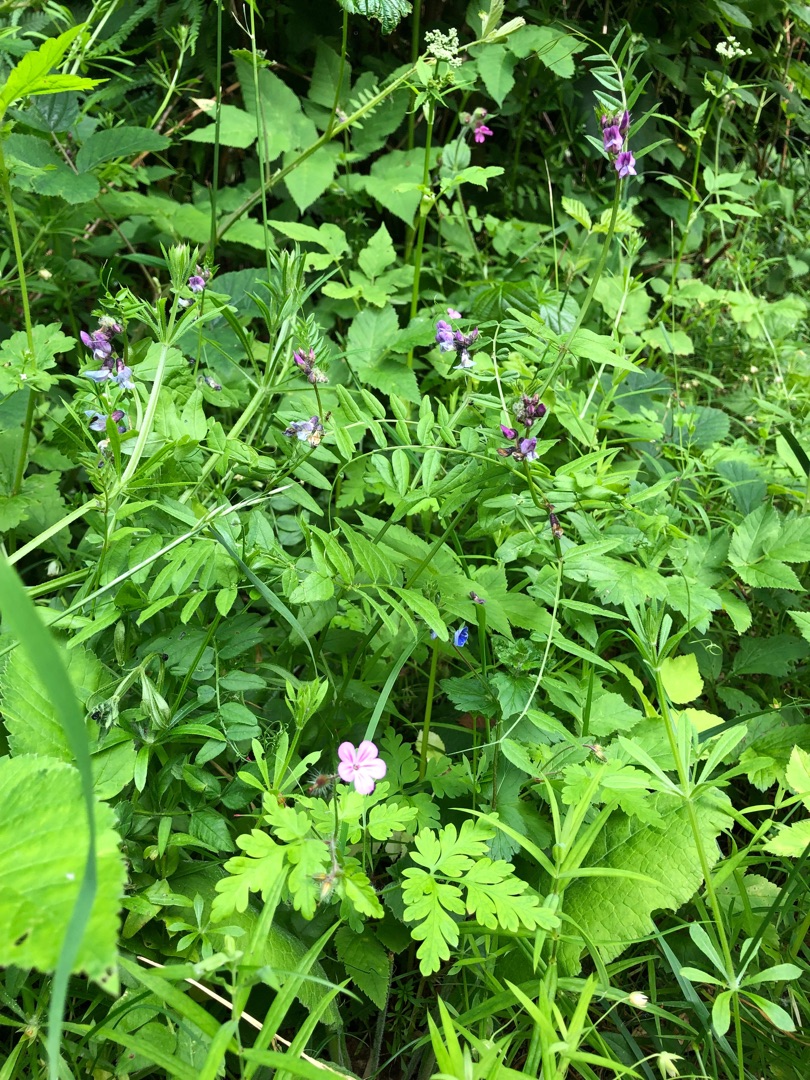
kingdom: Plantae
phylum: Tracheophyta
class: Magnoliopsida
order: Fabales
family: Fabaceae
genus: Vicia
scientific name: Vicia sepium
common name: Gærde-vikke
